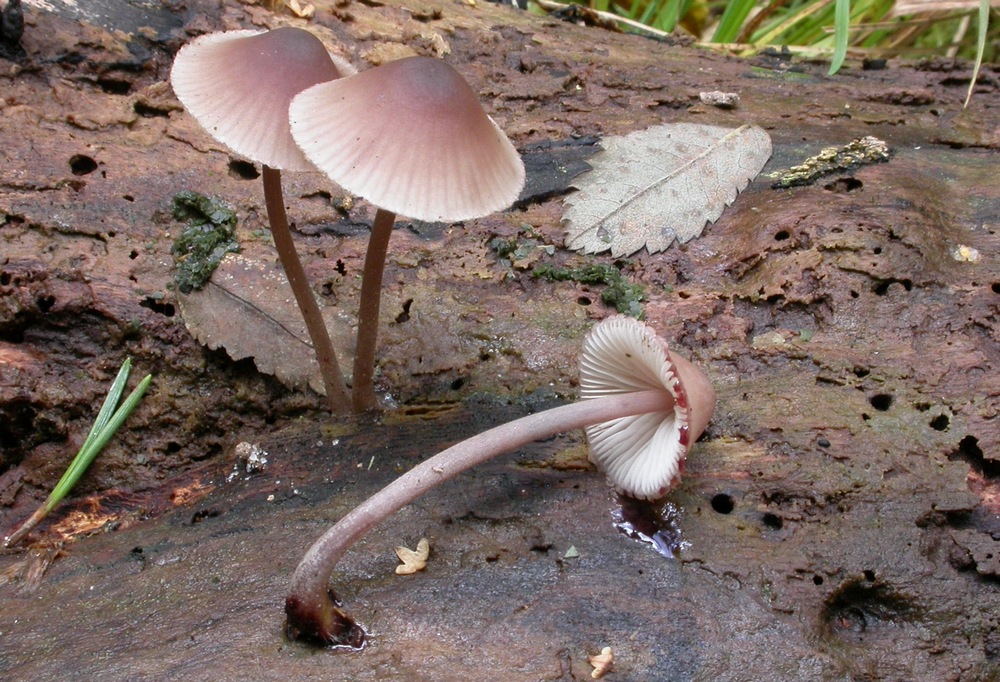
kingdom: Fungi
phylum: Basidiomycota
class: Agaricomycetes
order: Agaricales
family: Mycenaceae
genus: Mycena
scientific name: Mycena haematopus
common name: blødende huesvamp
